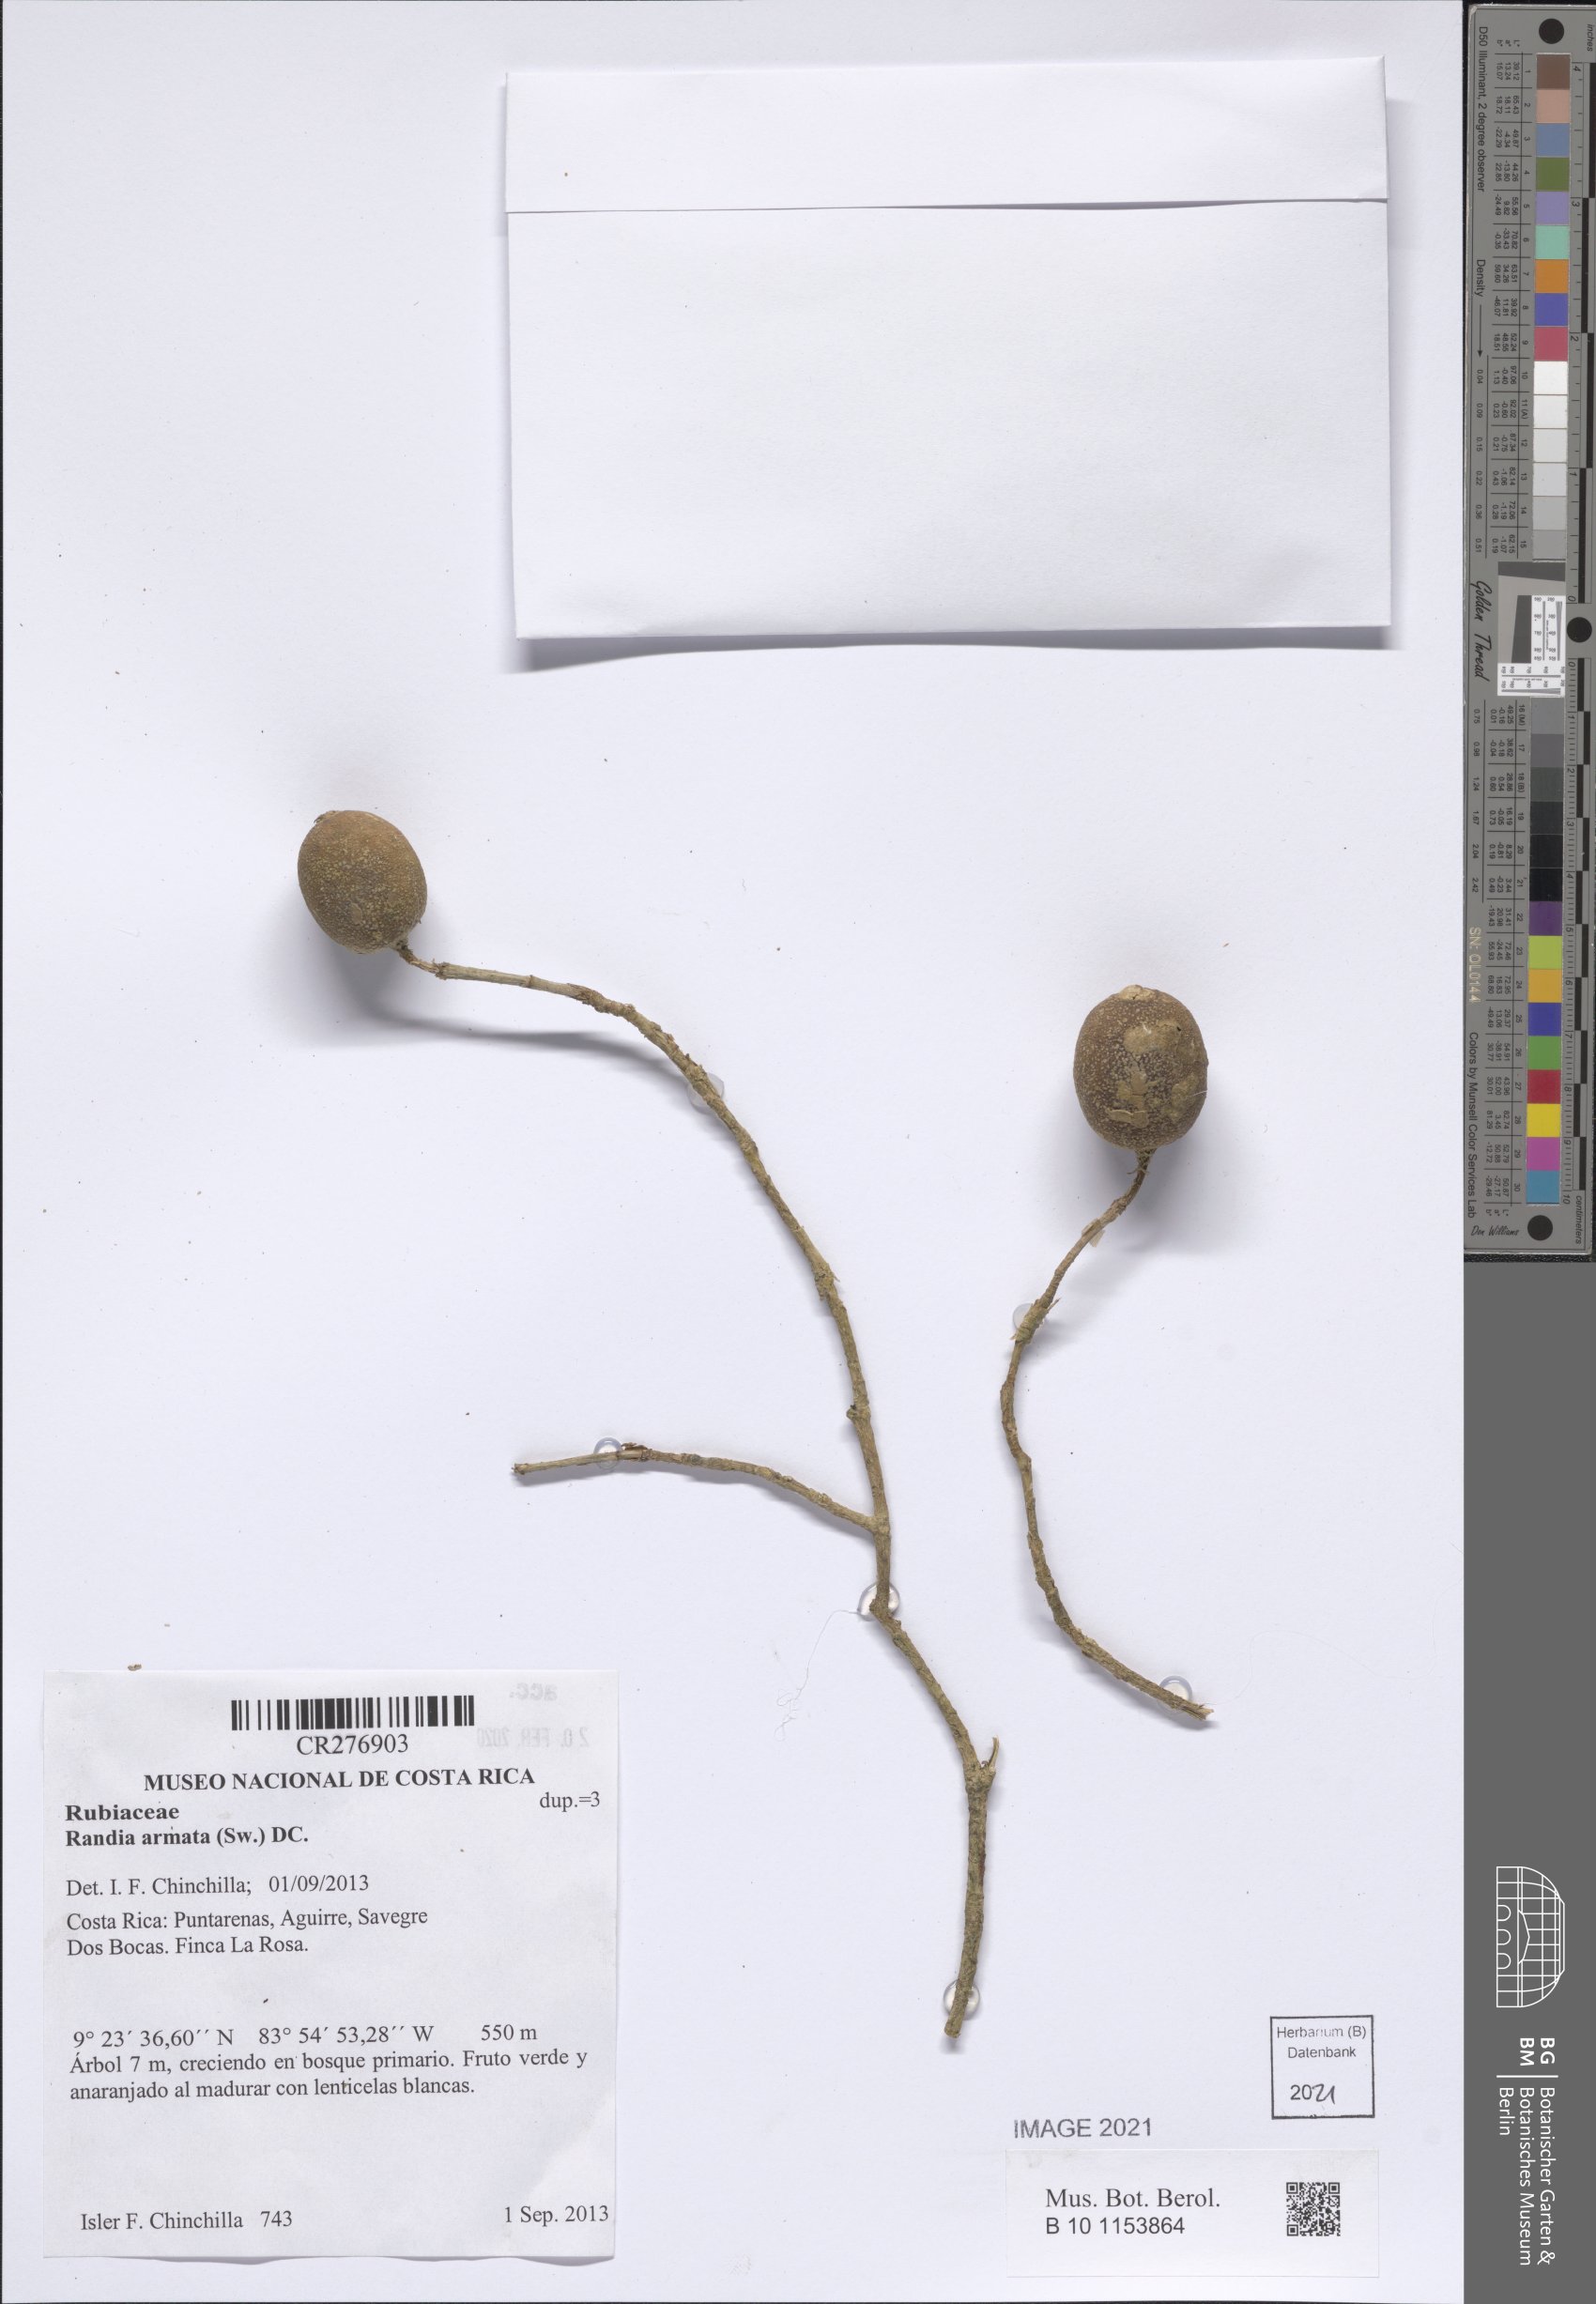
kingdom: Plantae
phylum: Tracheophyta
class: Magnoliopsida
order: Gentianales
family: Rubiaceae
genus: Randia
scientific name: Randia armata
